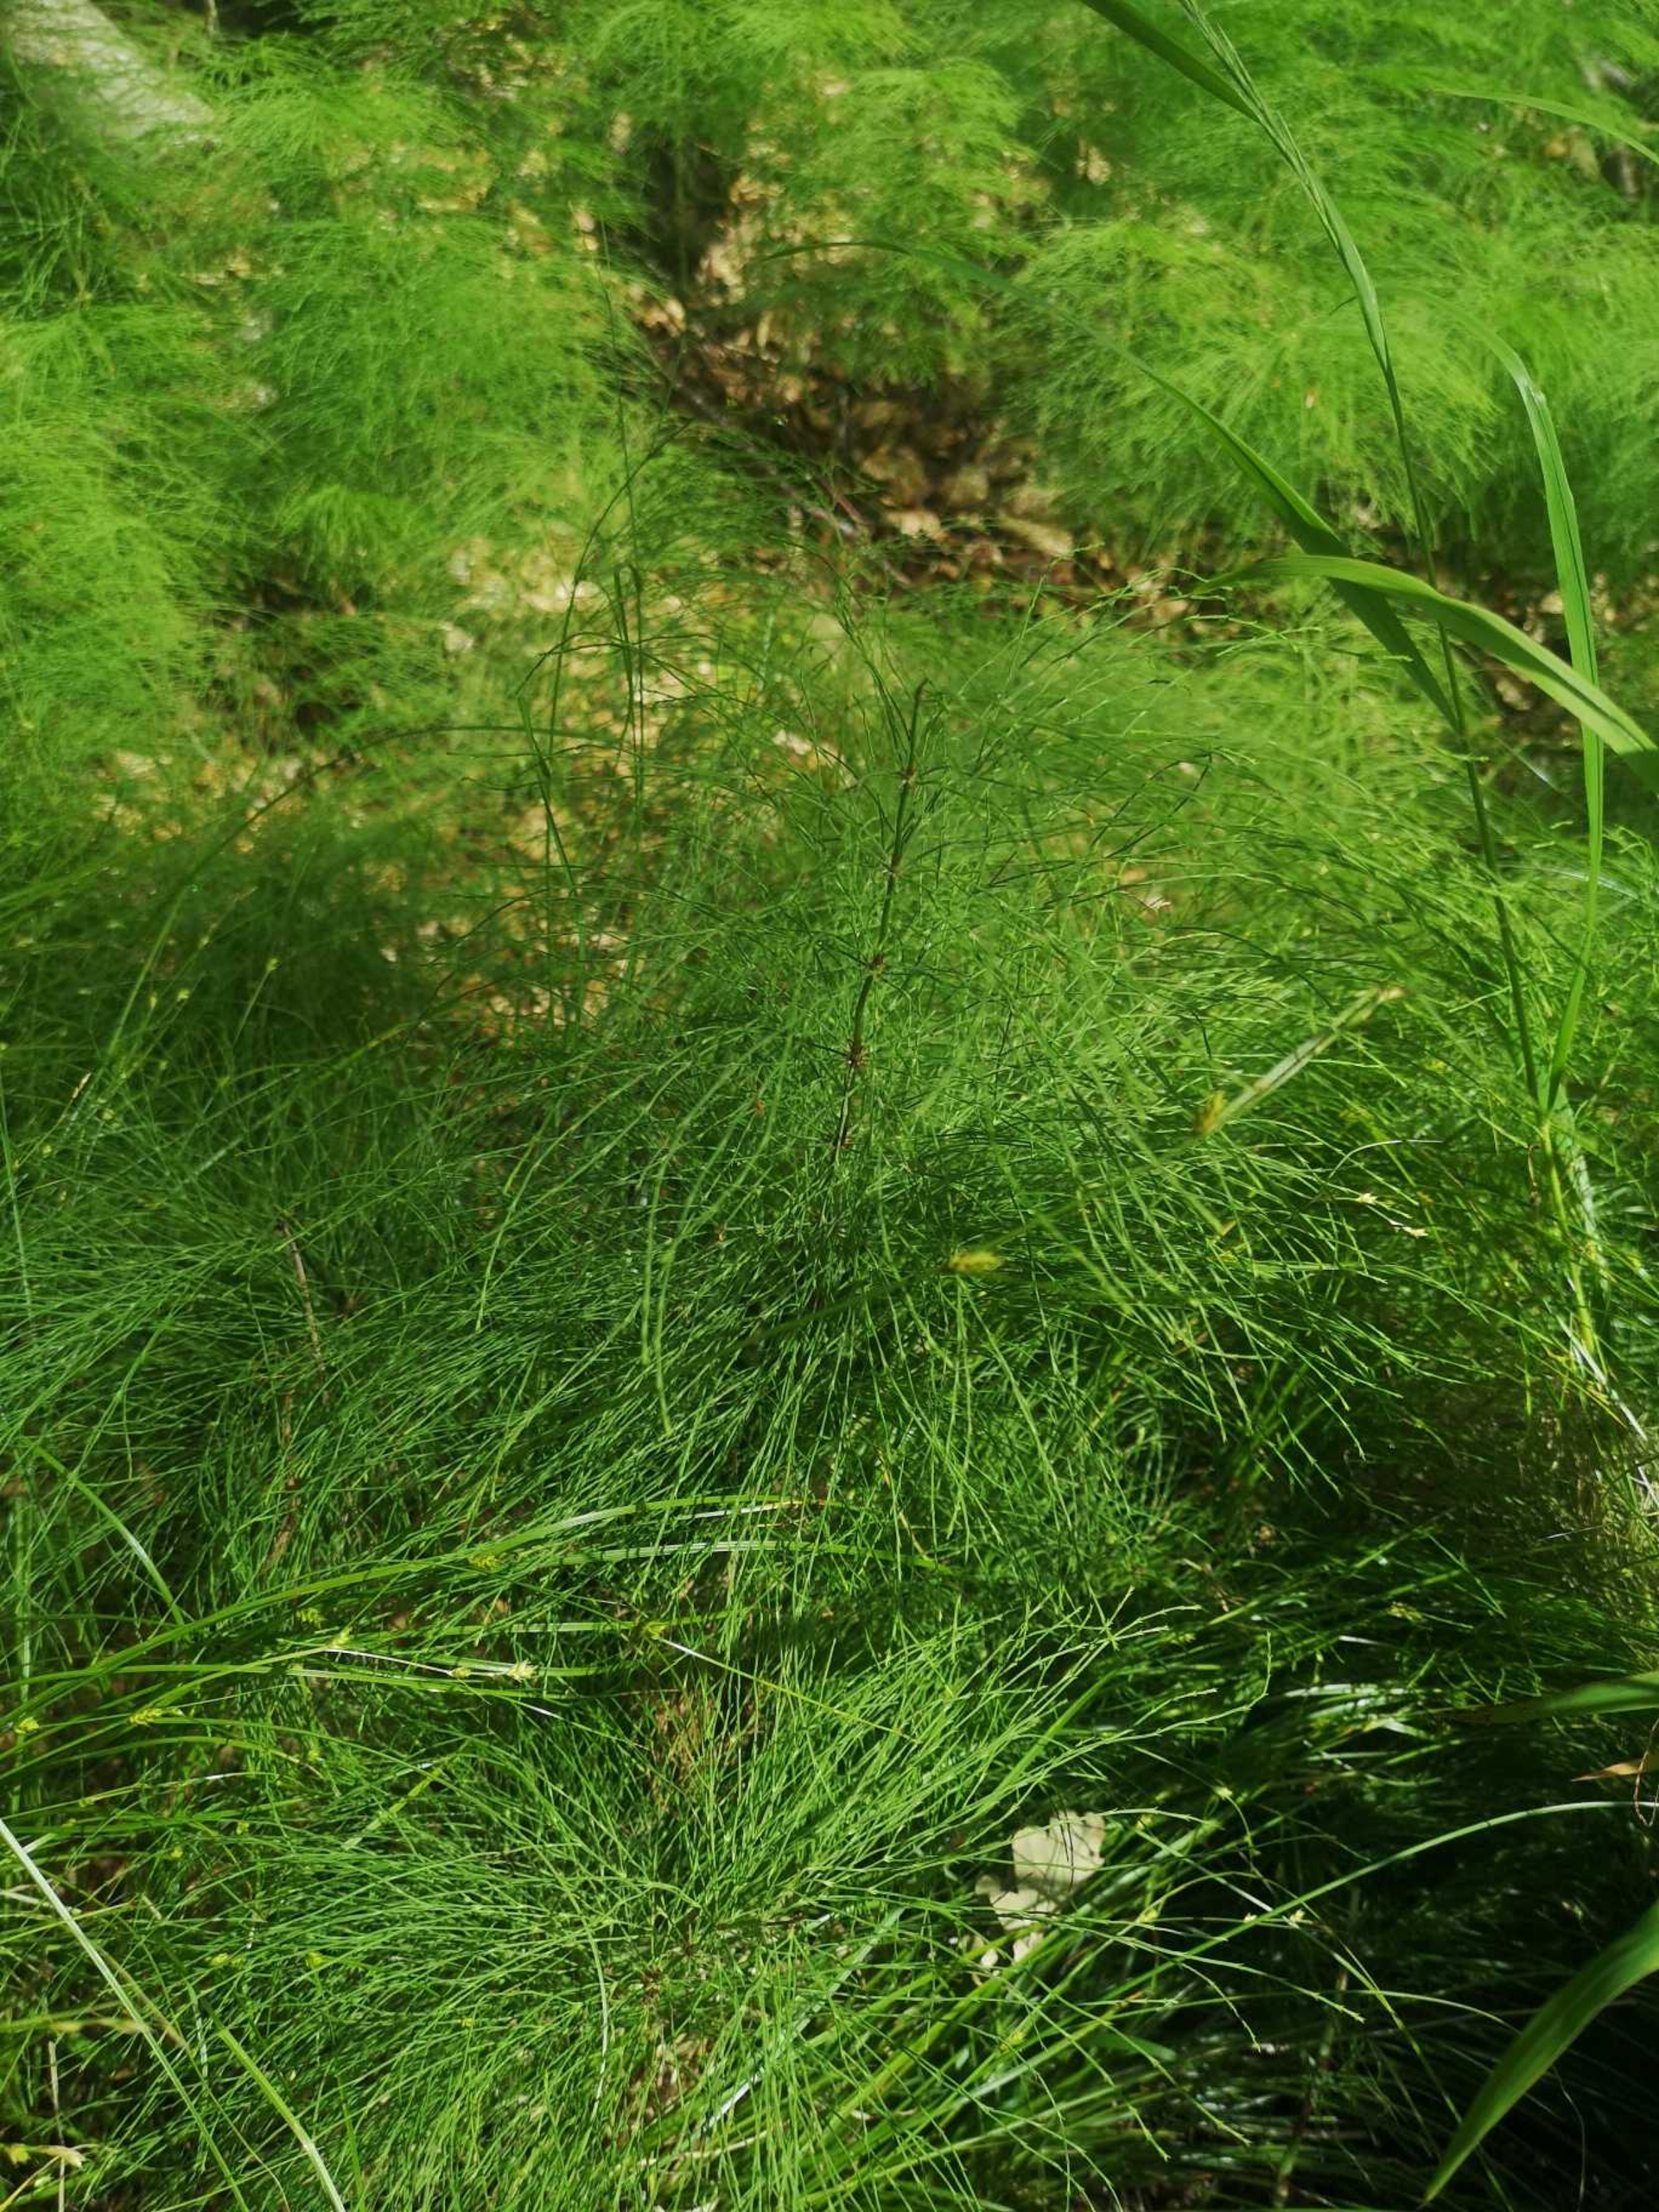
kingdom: Plantae
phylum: Tracheophyta
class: Polypodiopsida
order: Equisetales
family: Equisetaceae
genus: Equisetum
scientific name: Equisetum sylvaticum
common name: Skov-padderok
